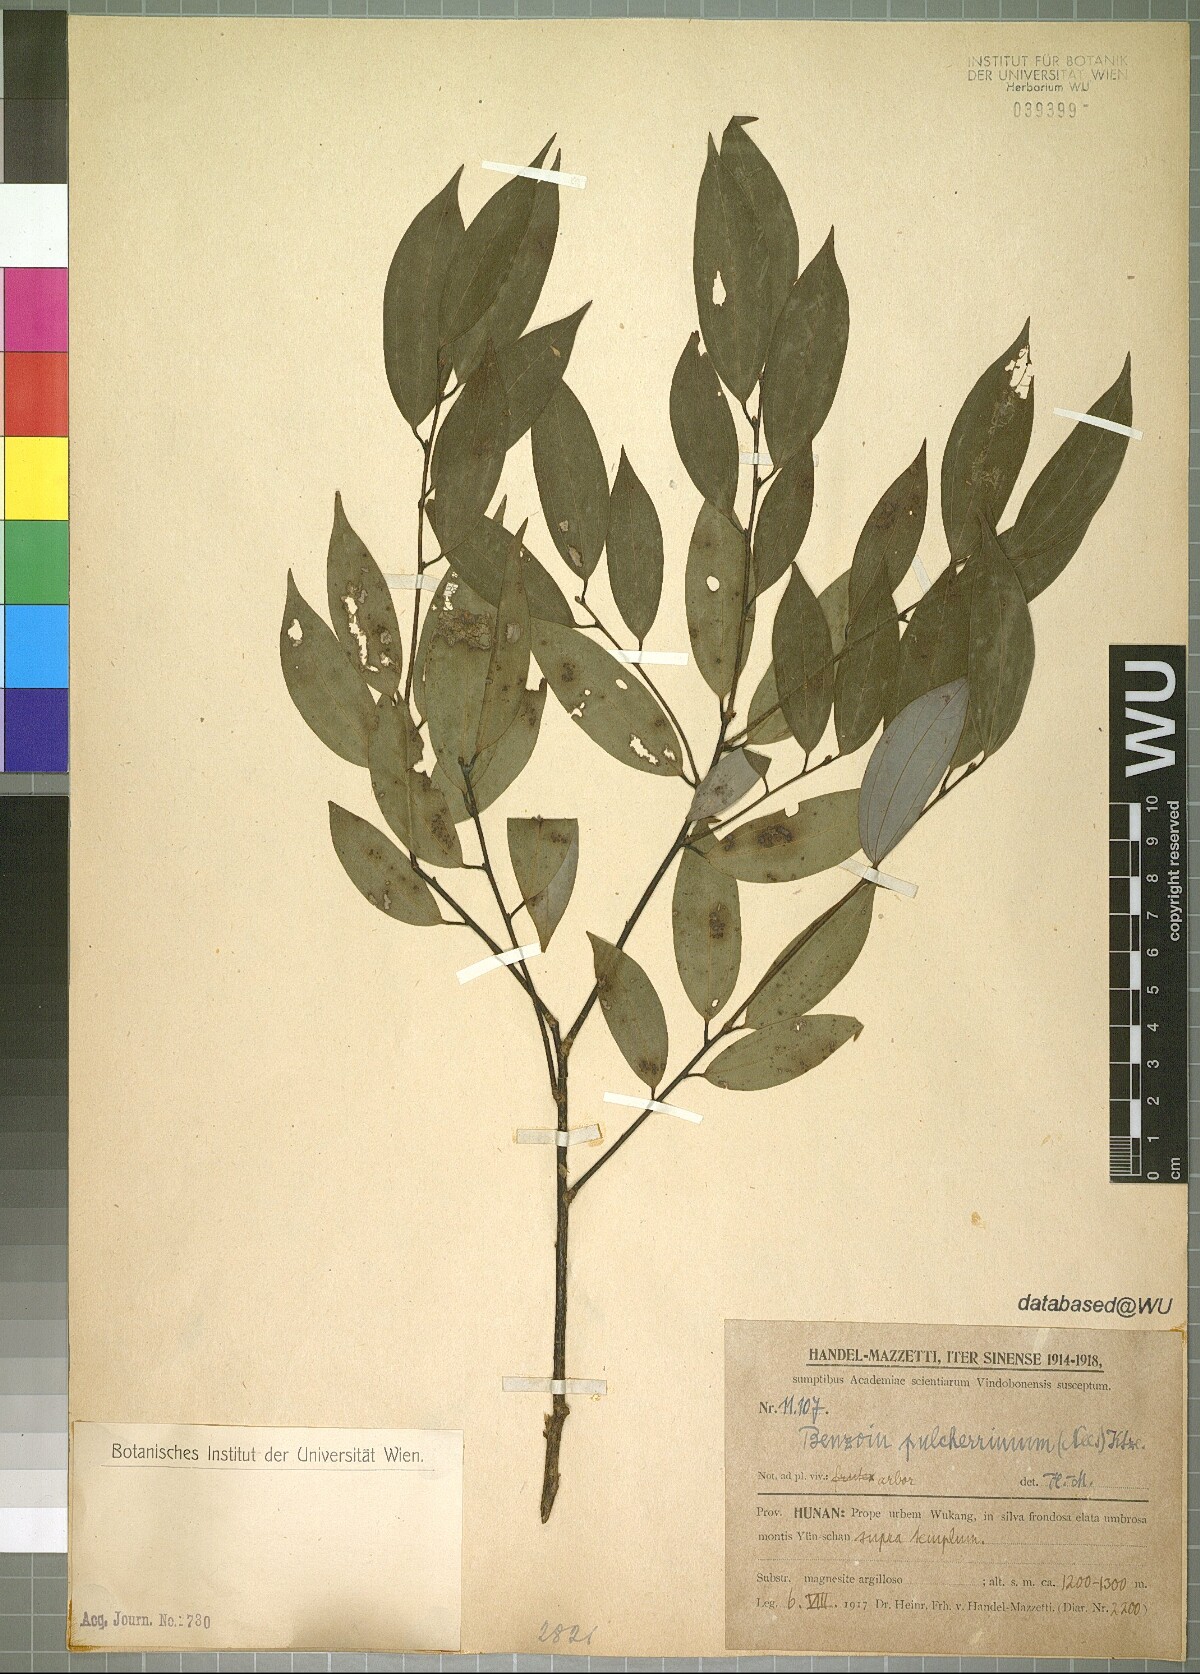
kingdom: Plantae
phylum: Tracheophyta
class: Magnoliopsida
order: Laurales
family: Lauraceae
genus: Lindera
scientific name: Lindera pulcherrima
